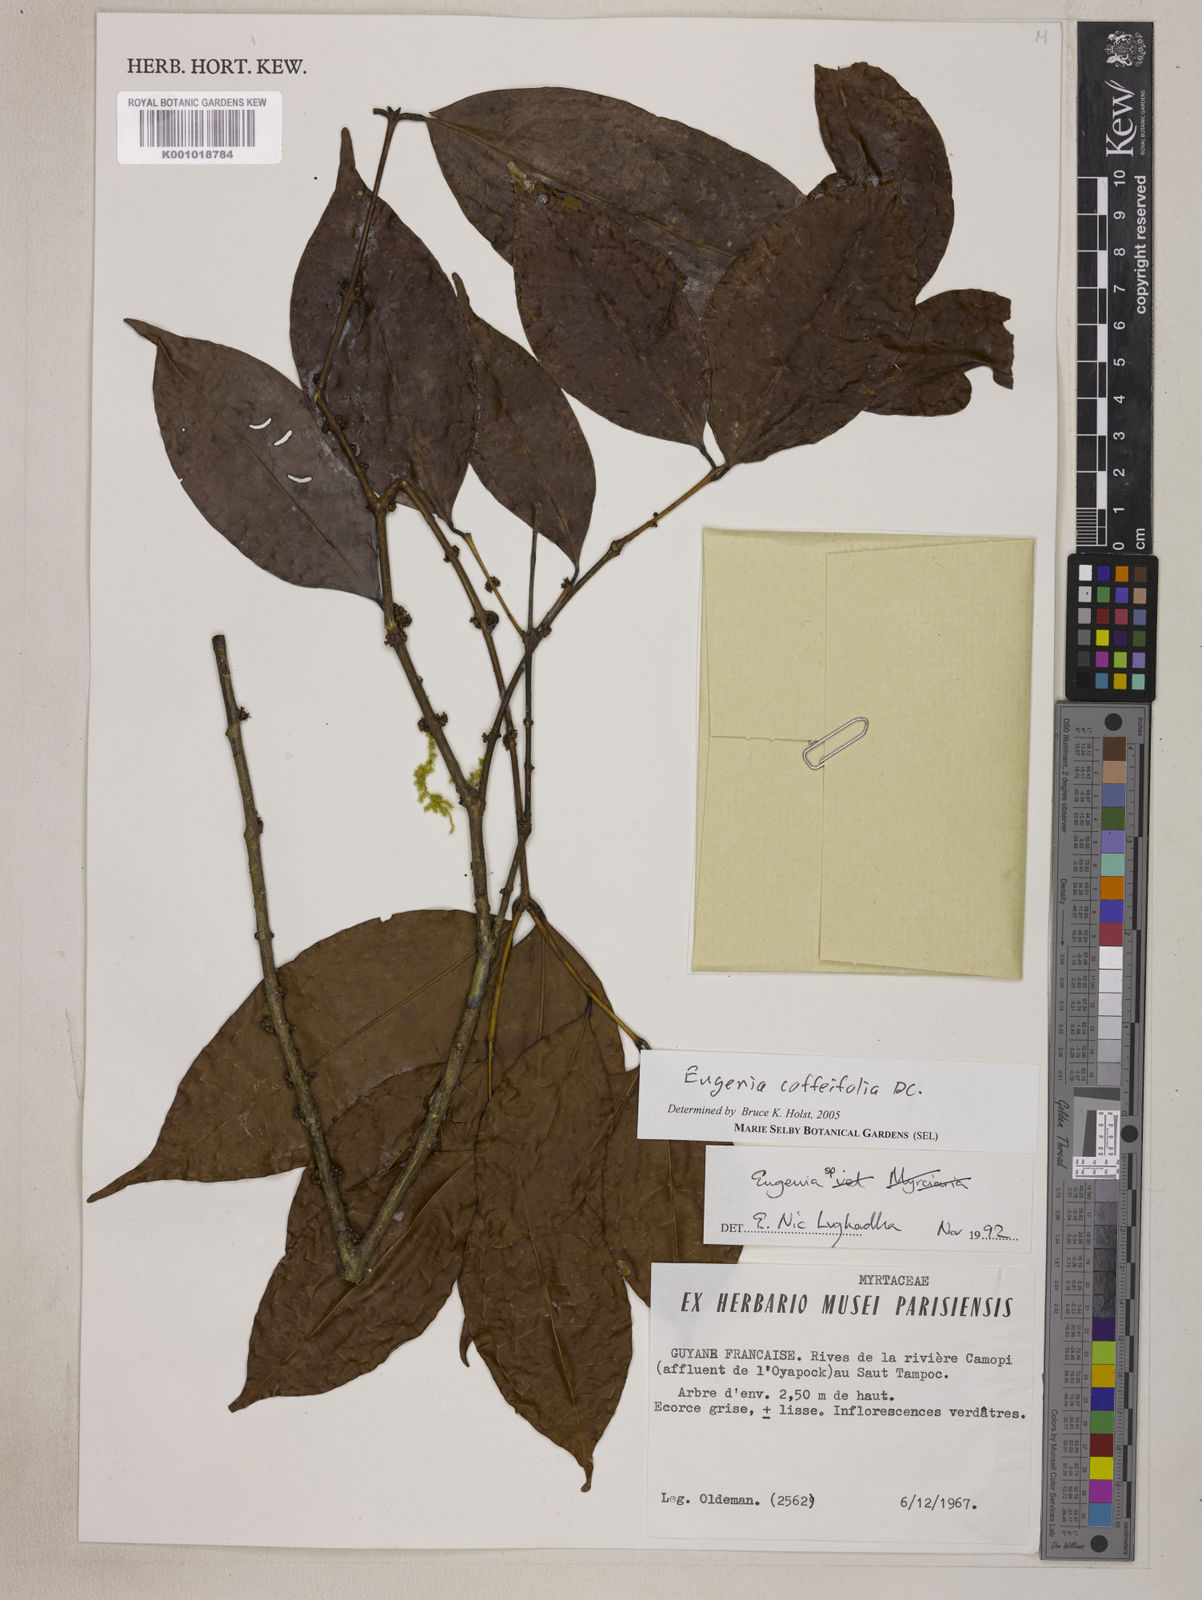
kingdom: Plantae
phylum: Tracheophyta
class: Magnoliopsida
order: Myrtales
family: Myrtaceae
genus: Eugenia
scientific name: Eugenia coffeifolia
